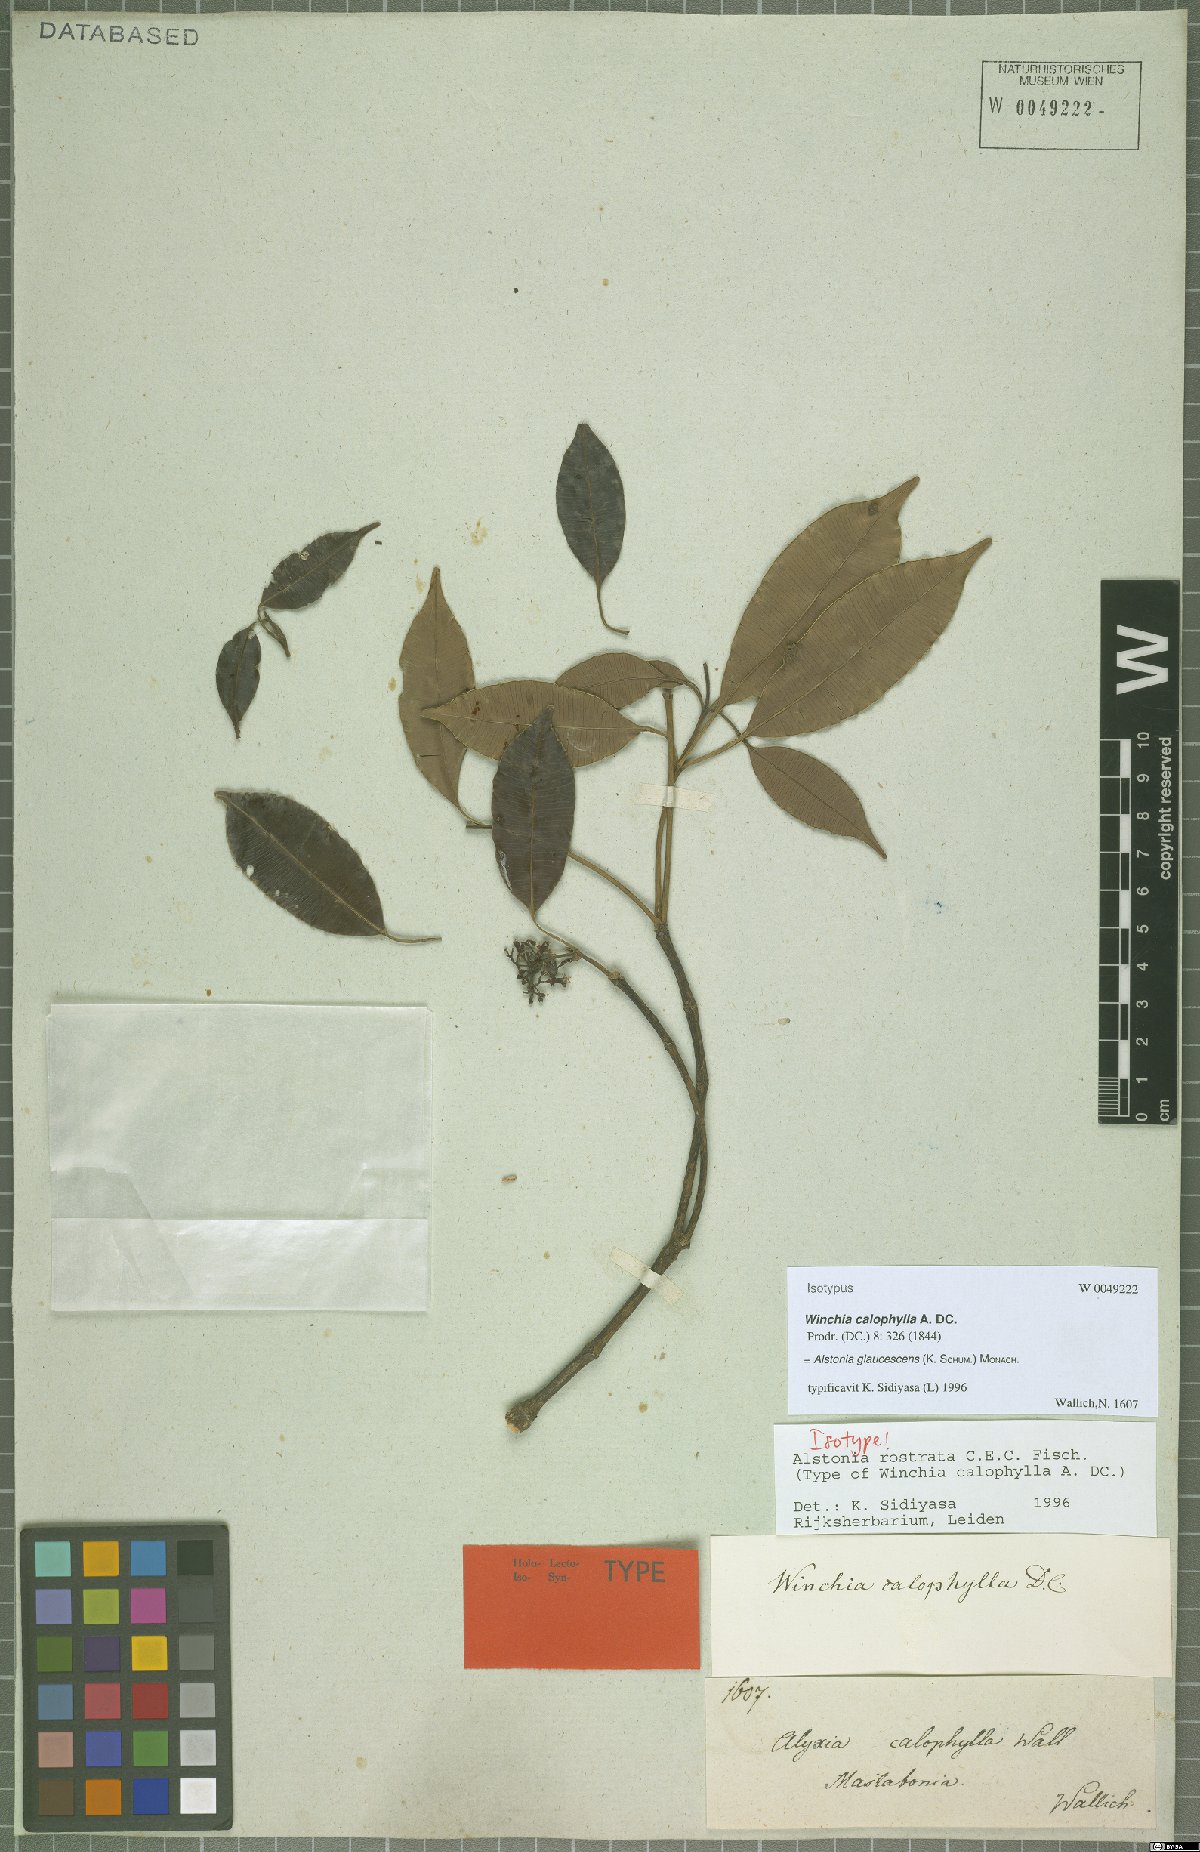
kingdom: Plantae
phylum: Tracheophyta
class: Magnoliopsida
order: Gentianales
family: Apocynaceae
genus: Alstonia
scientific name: Alstonia rostrata
